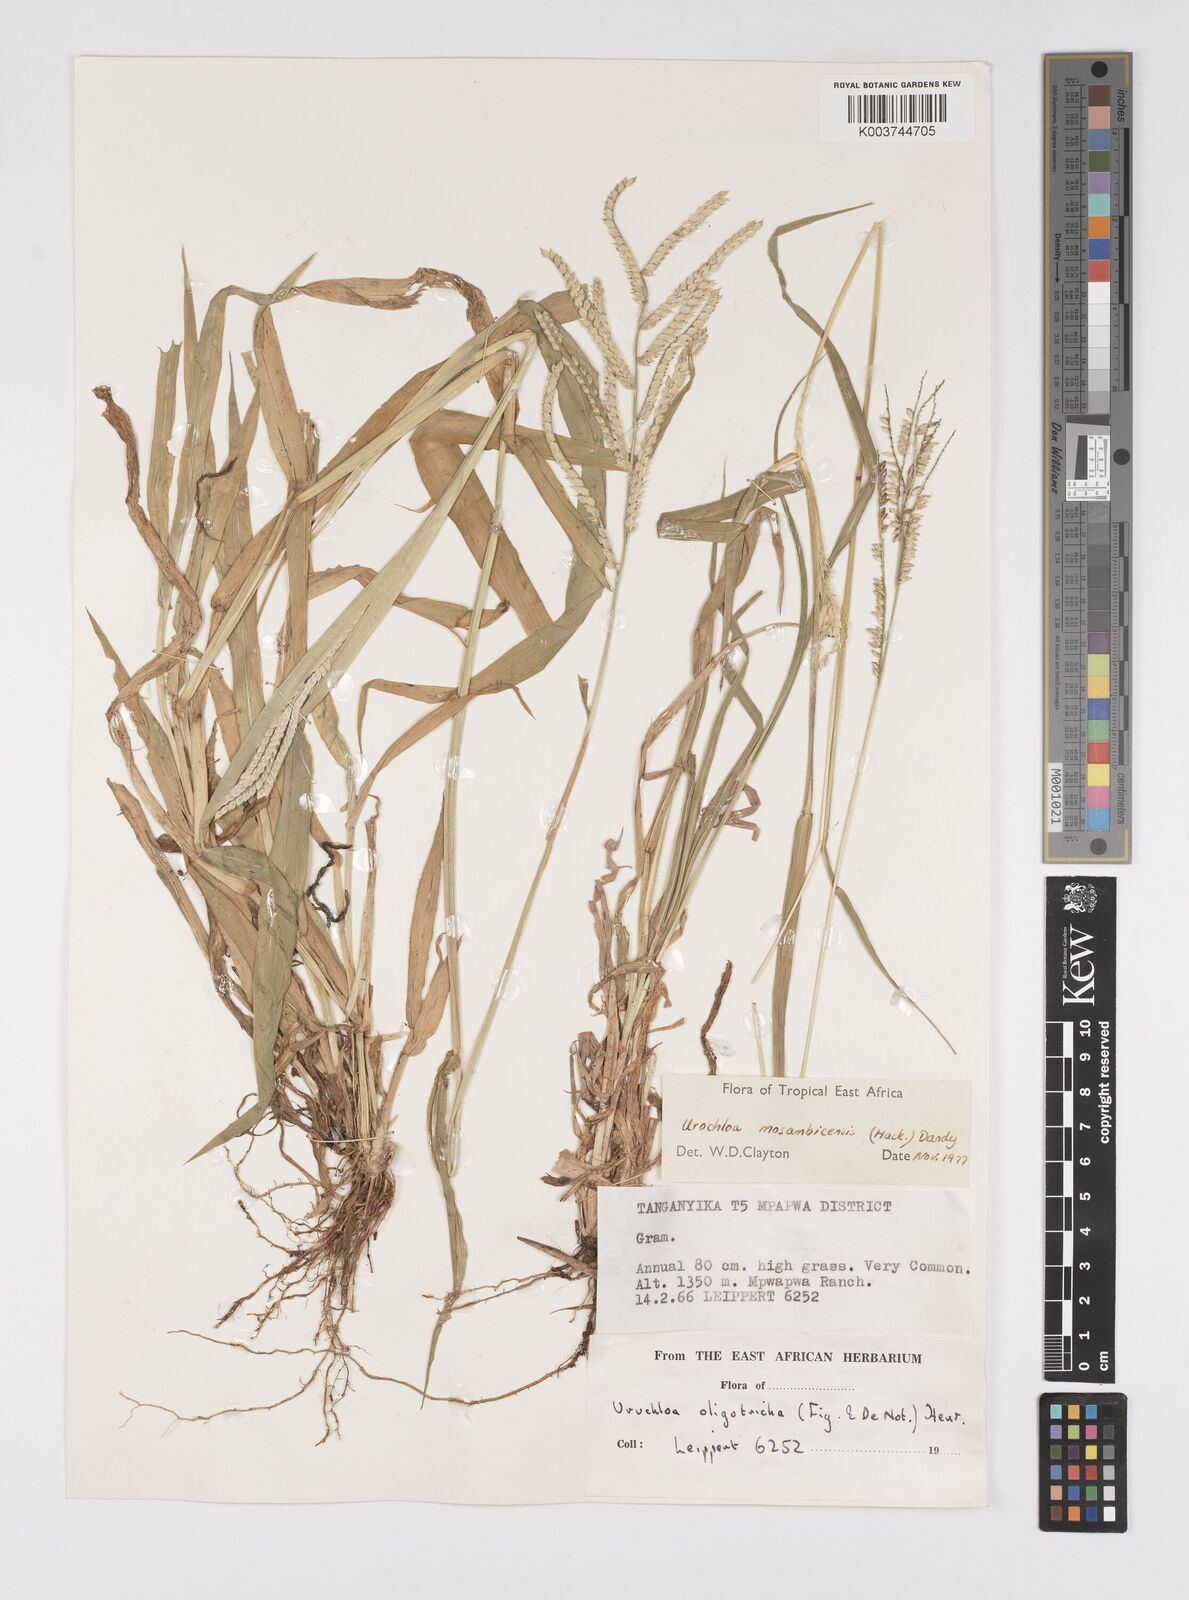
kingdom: Plantae
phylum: Tracheophyta
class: Liliopsida
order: Poales
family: Poaceae
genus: Urochloa
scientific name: Urochloa trichopus
